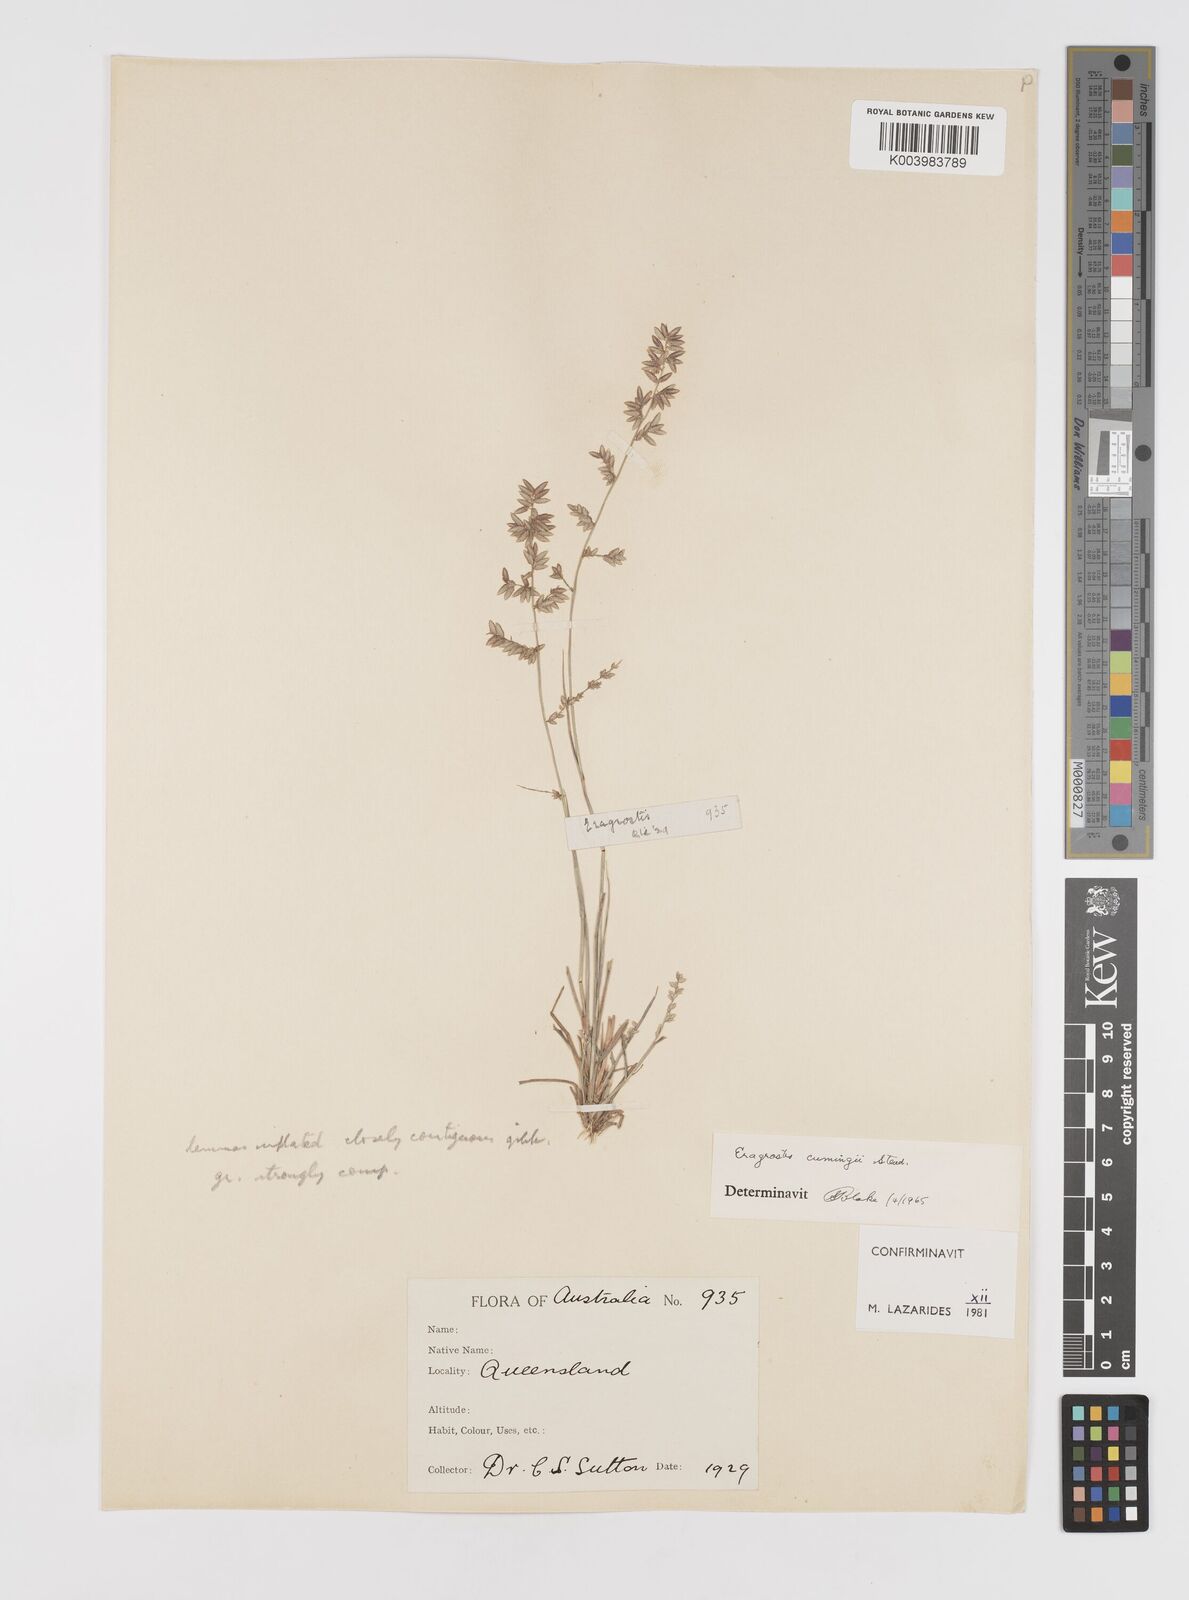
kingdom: Plantae
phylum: Tracheophyta
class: Liliopsida
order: Poales
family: Poaceae
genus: Eragrostis
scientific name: Eragrostis cumingii
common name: Cuming's lovegrass
